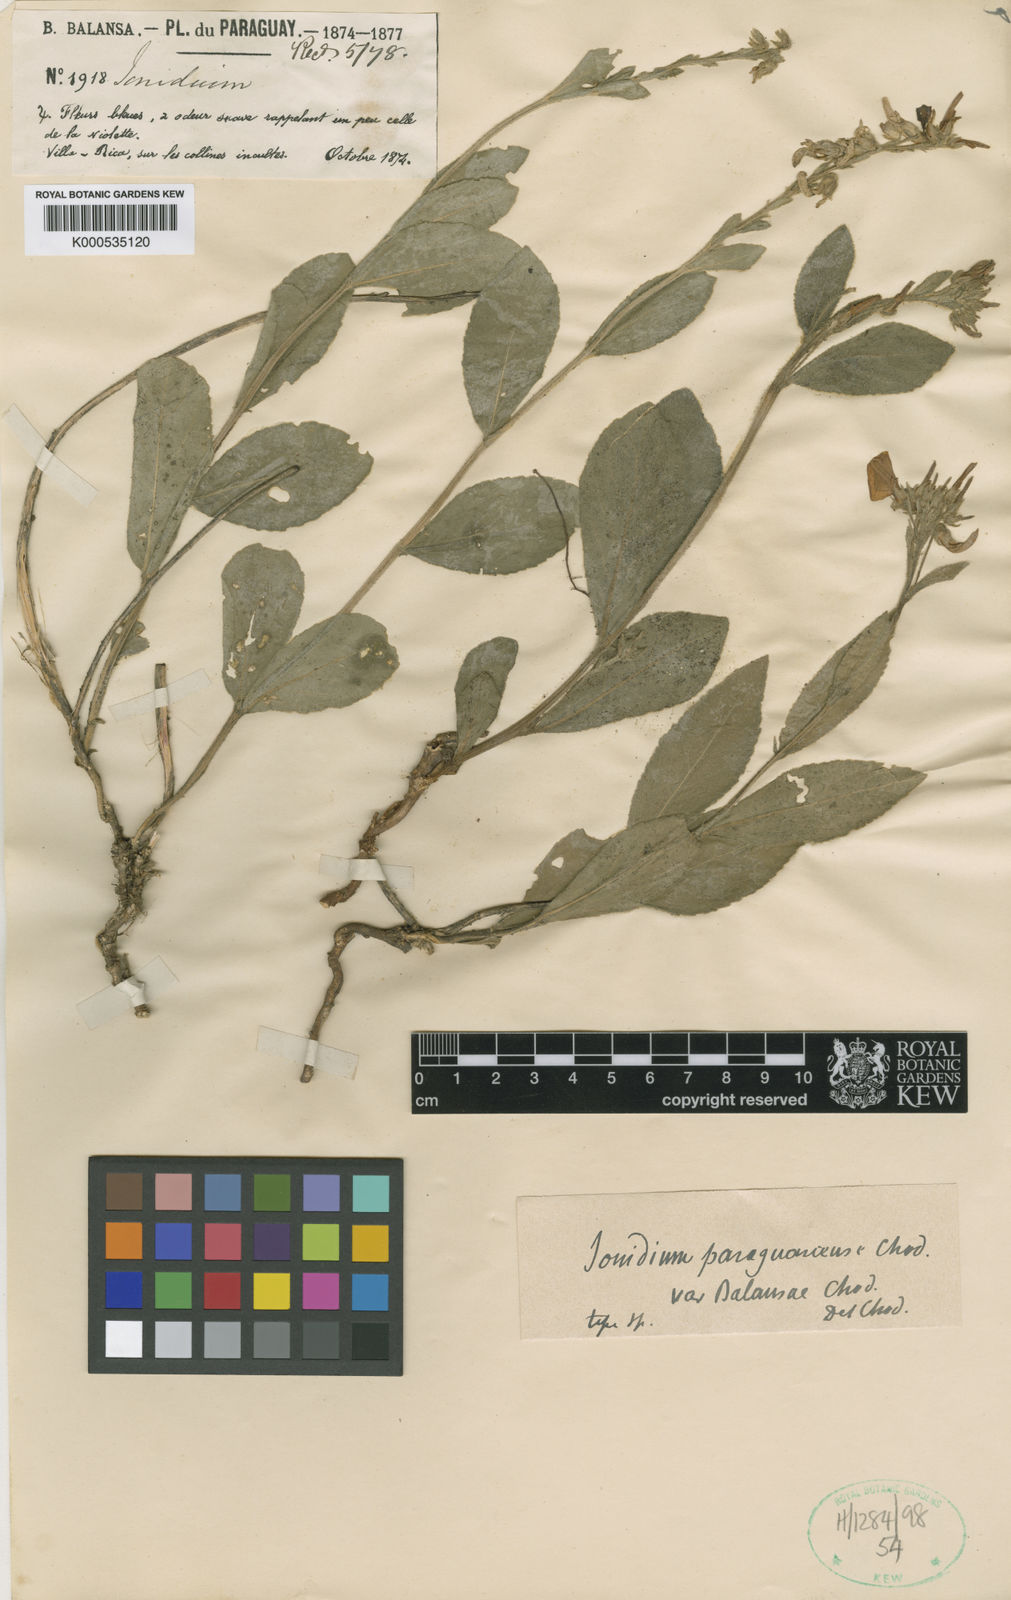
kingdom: Plantae
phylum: Tracheophyta
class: Magnoliopsida
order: Malpighiales
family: Violaceae
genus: Hybanthus
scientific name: Hybanthus
